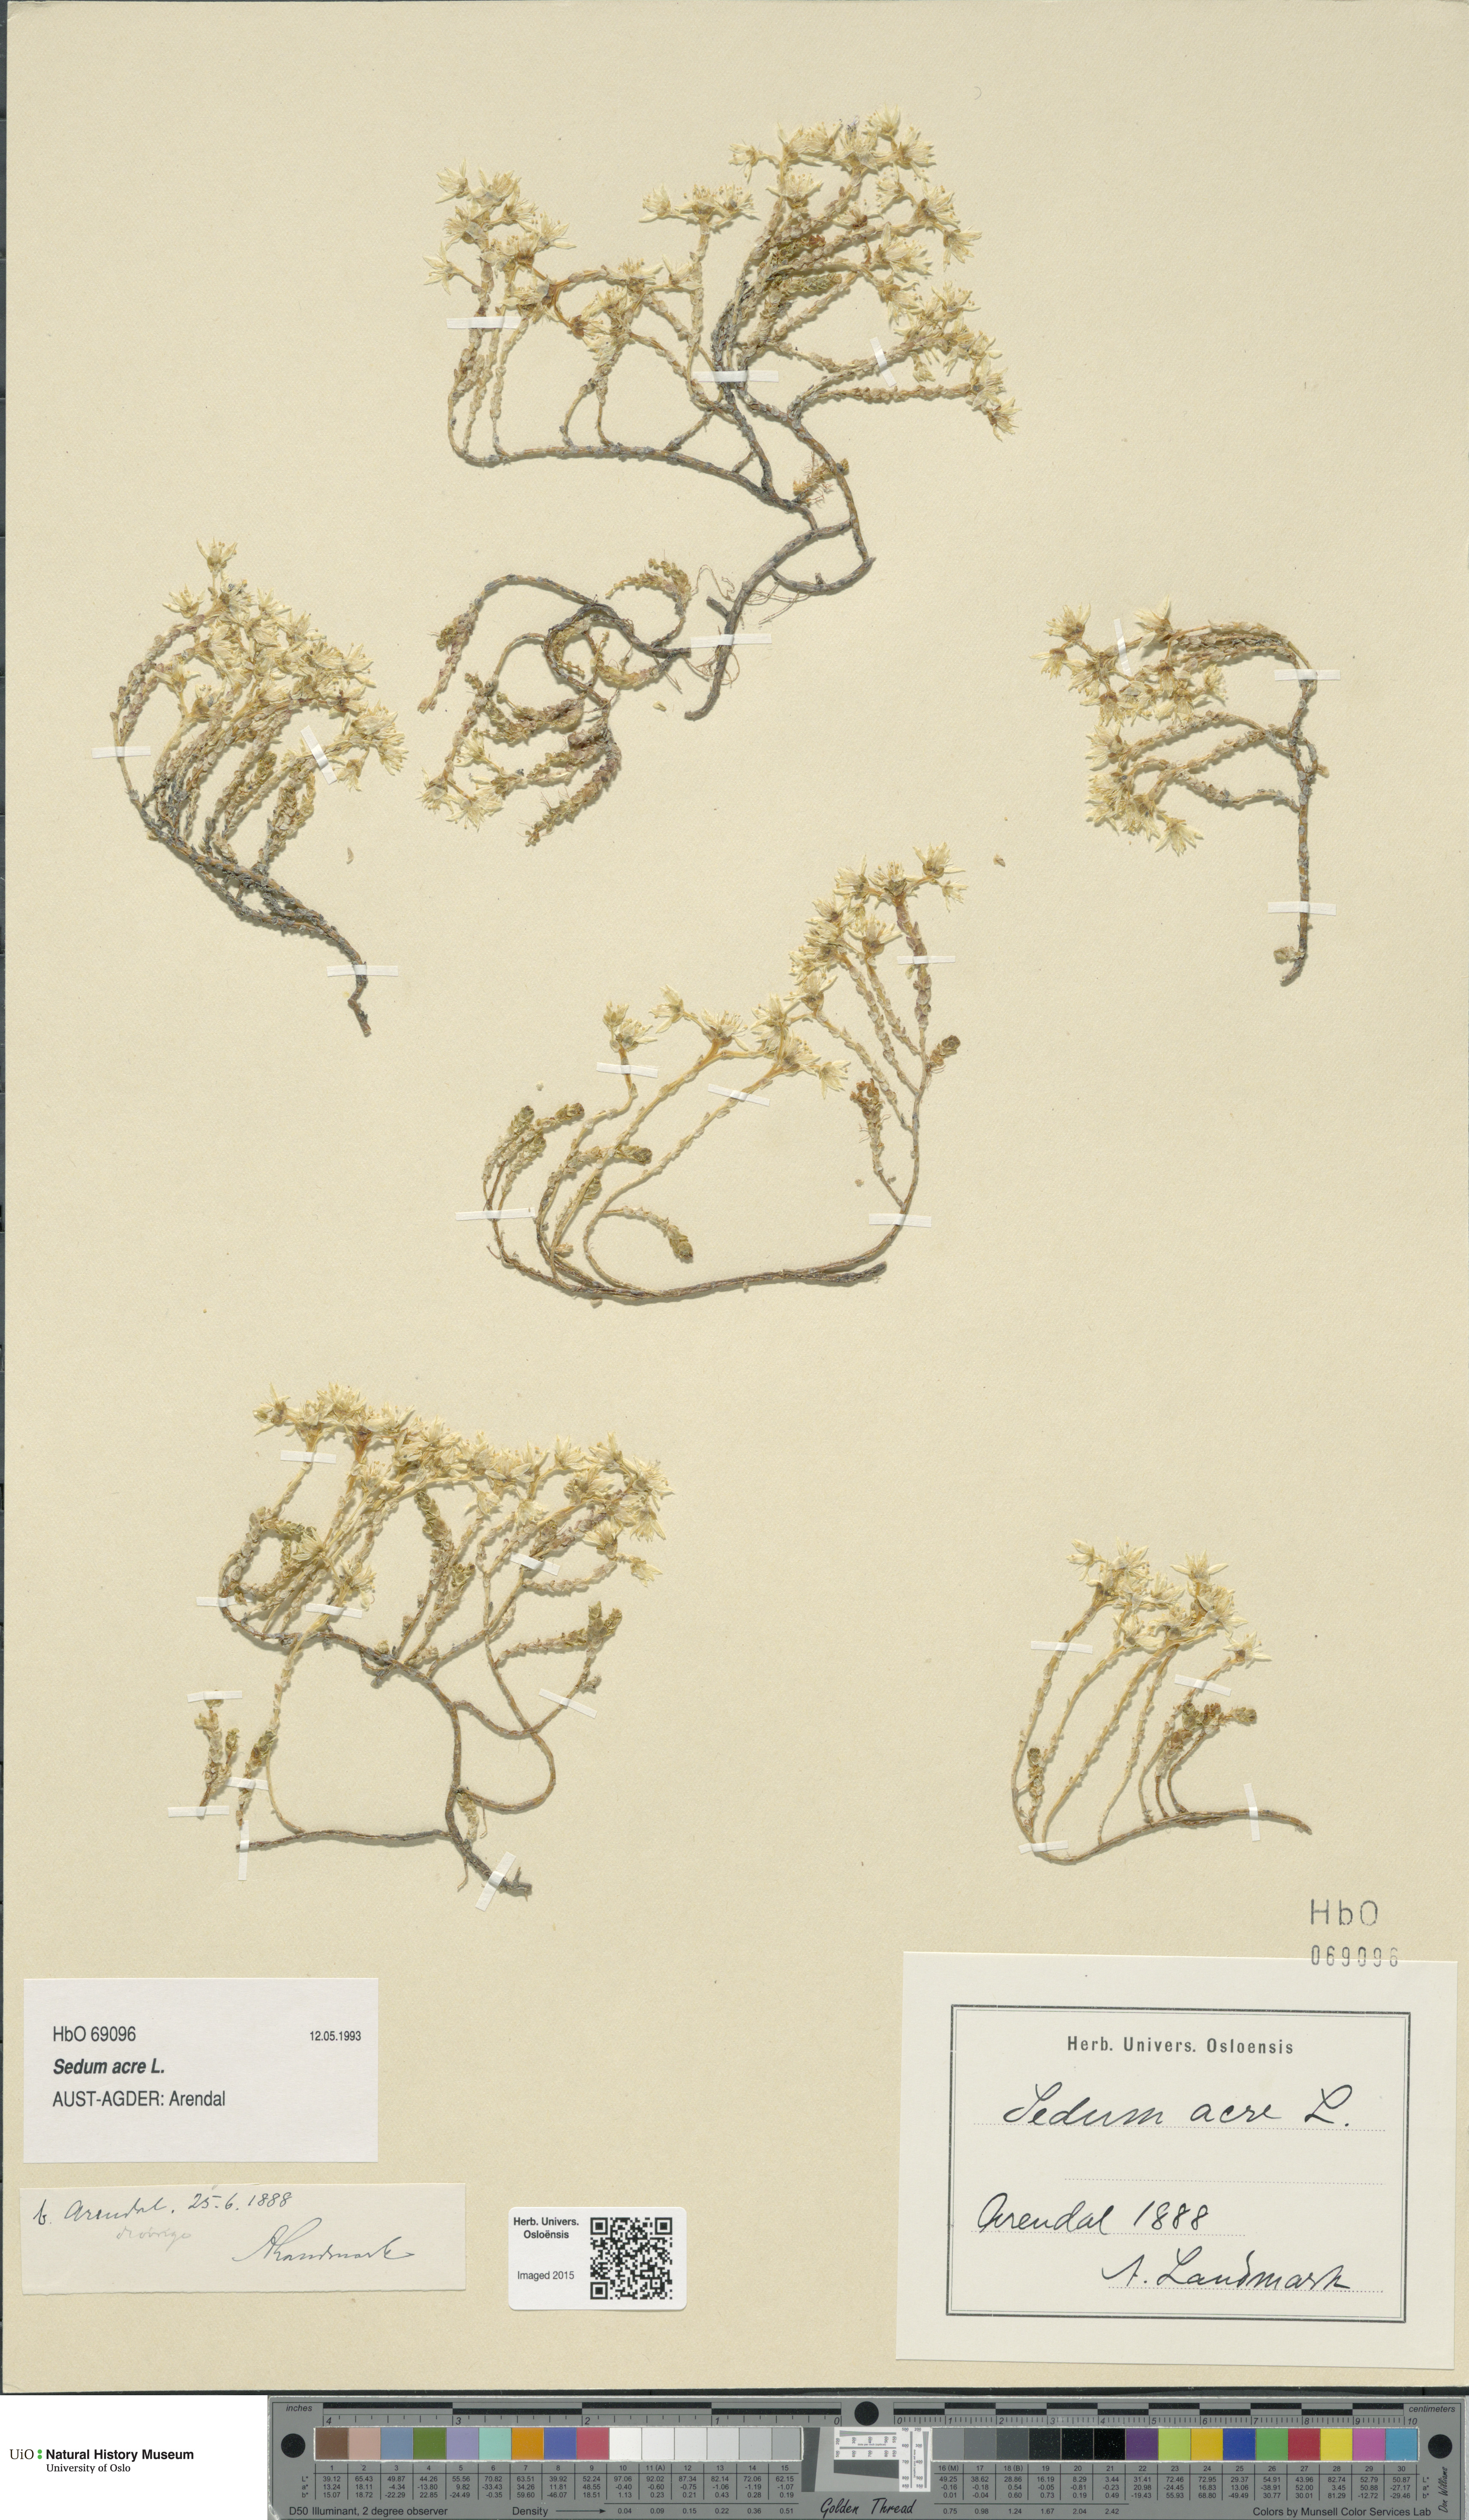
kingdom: Plantae
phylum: Tracheophyta
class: Magnoliopsida
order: Saxifragales
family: Crassulaceae
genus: Sedum
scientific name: Sedum acre
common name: Biting stonecrop
